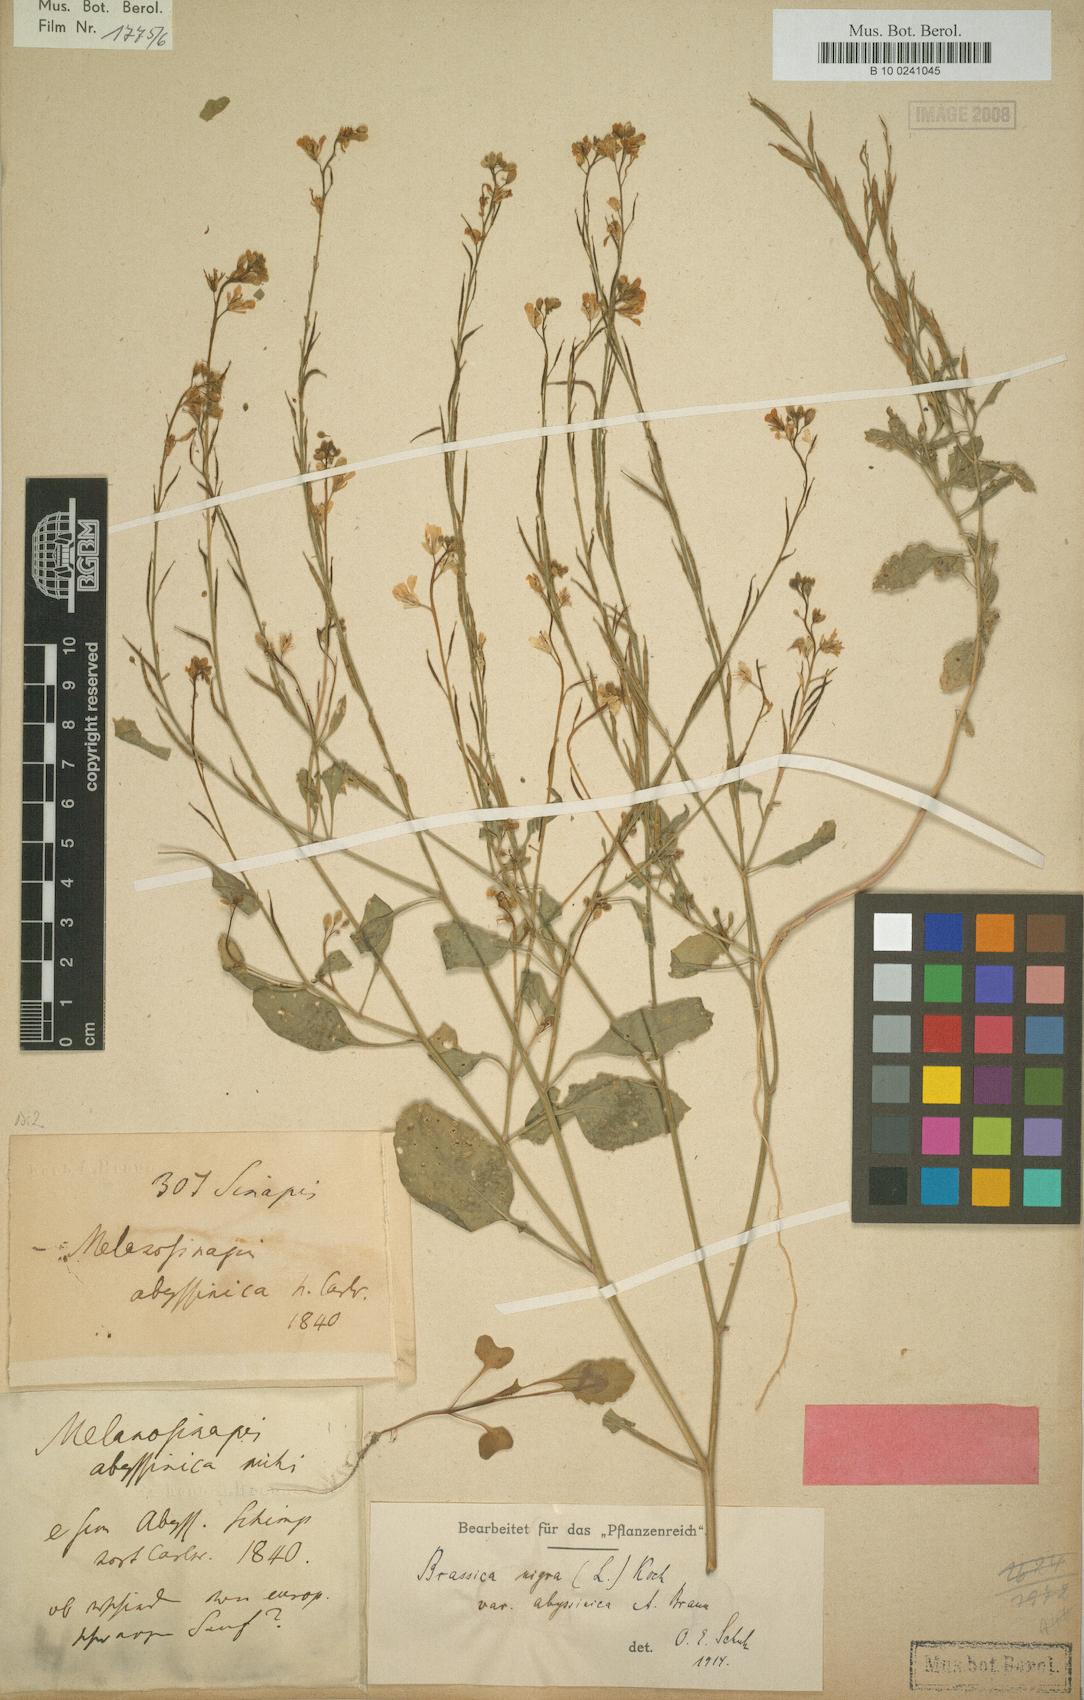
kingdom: Plantae
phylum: Tracheophyta
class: Magnoliopsida
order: Brassicales
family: Brassicaceae
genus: Brassica
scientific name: Brassica nigra
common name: Black mustard
